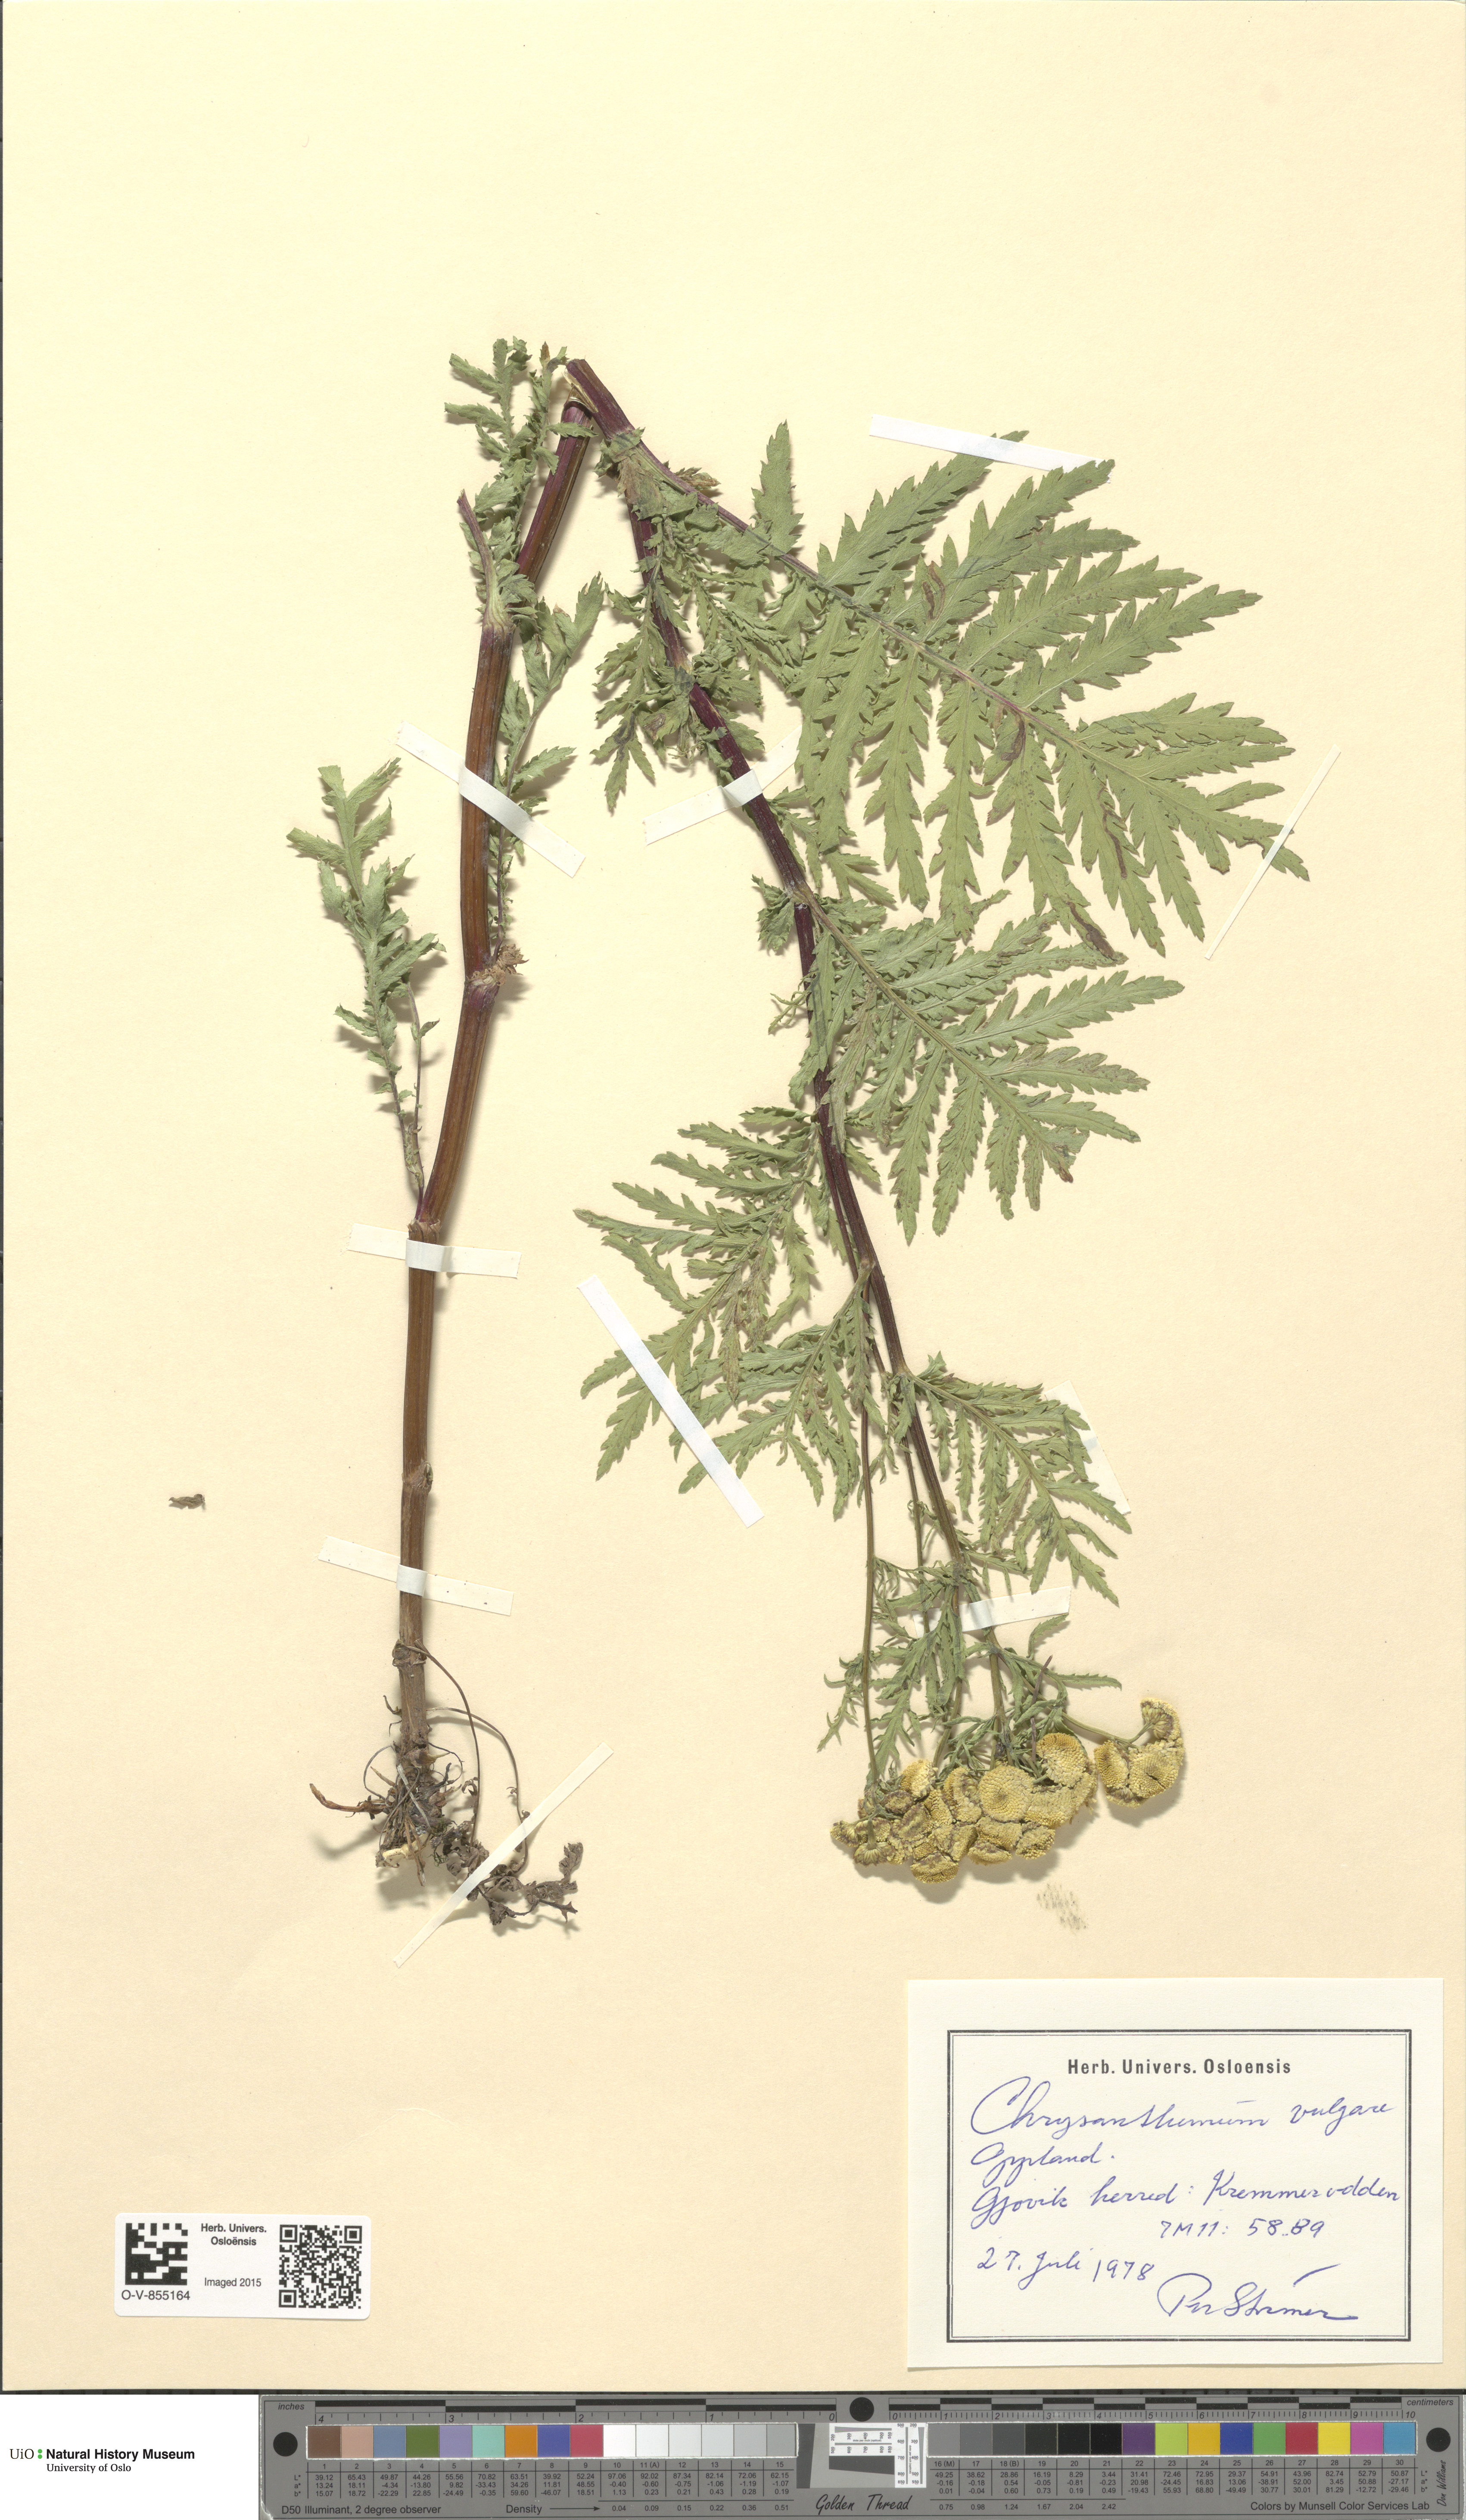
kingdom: Plantae
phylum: Tracheophyta
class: Magnoliopsida
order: Asterales
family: Asteraceae
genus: Tanacetum
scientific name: Tanacetum vulgare
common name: Common tansy
